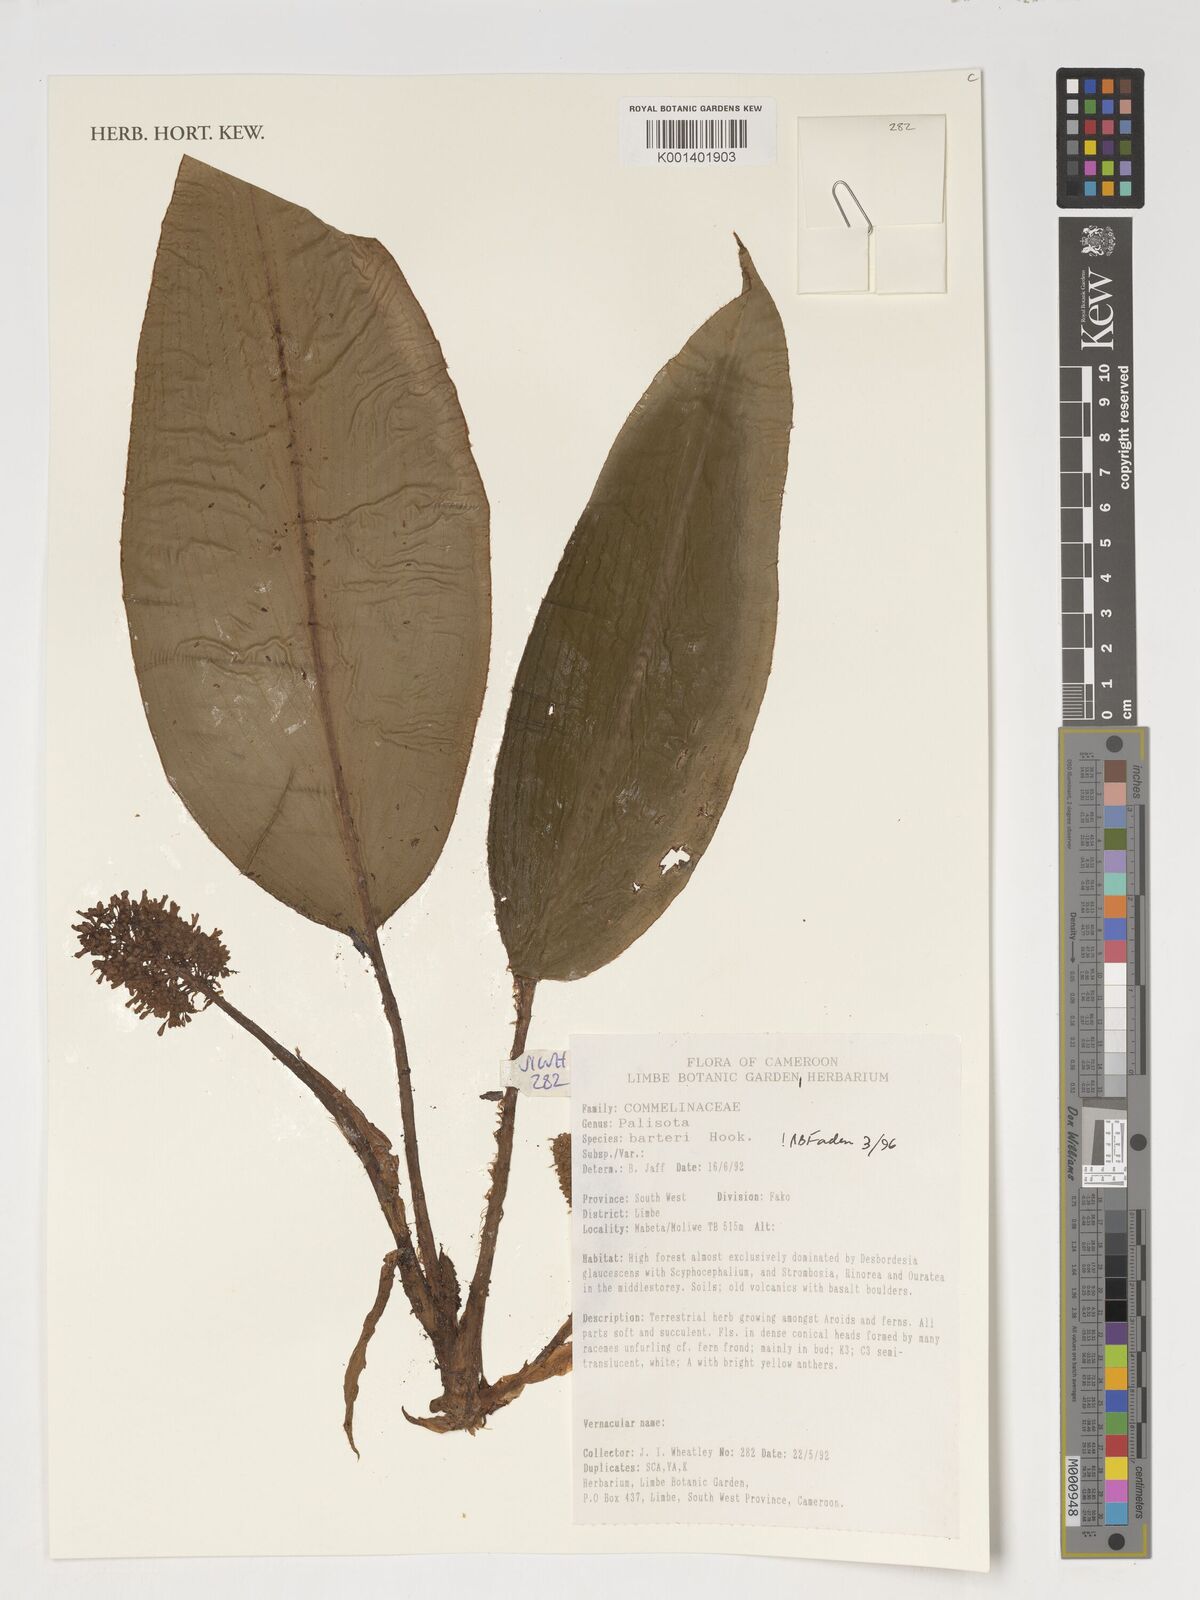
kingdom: Plantae
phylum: Tracheophyta
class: Liliopsida
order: Commelinales
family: Commelinaceae
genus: Palisota
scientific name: Palisota barteri
